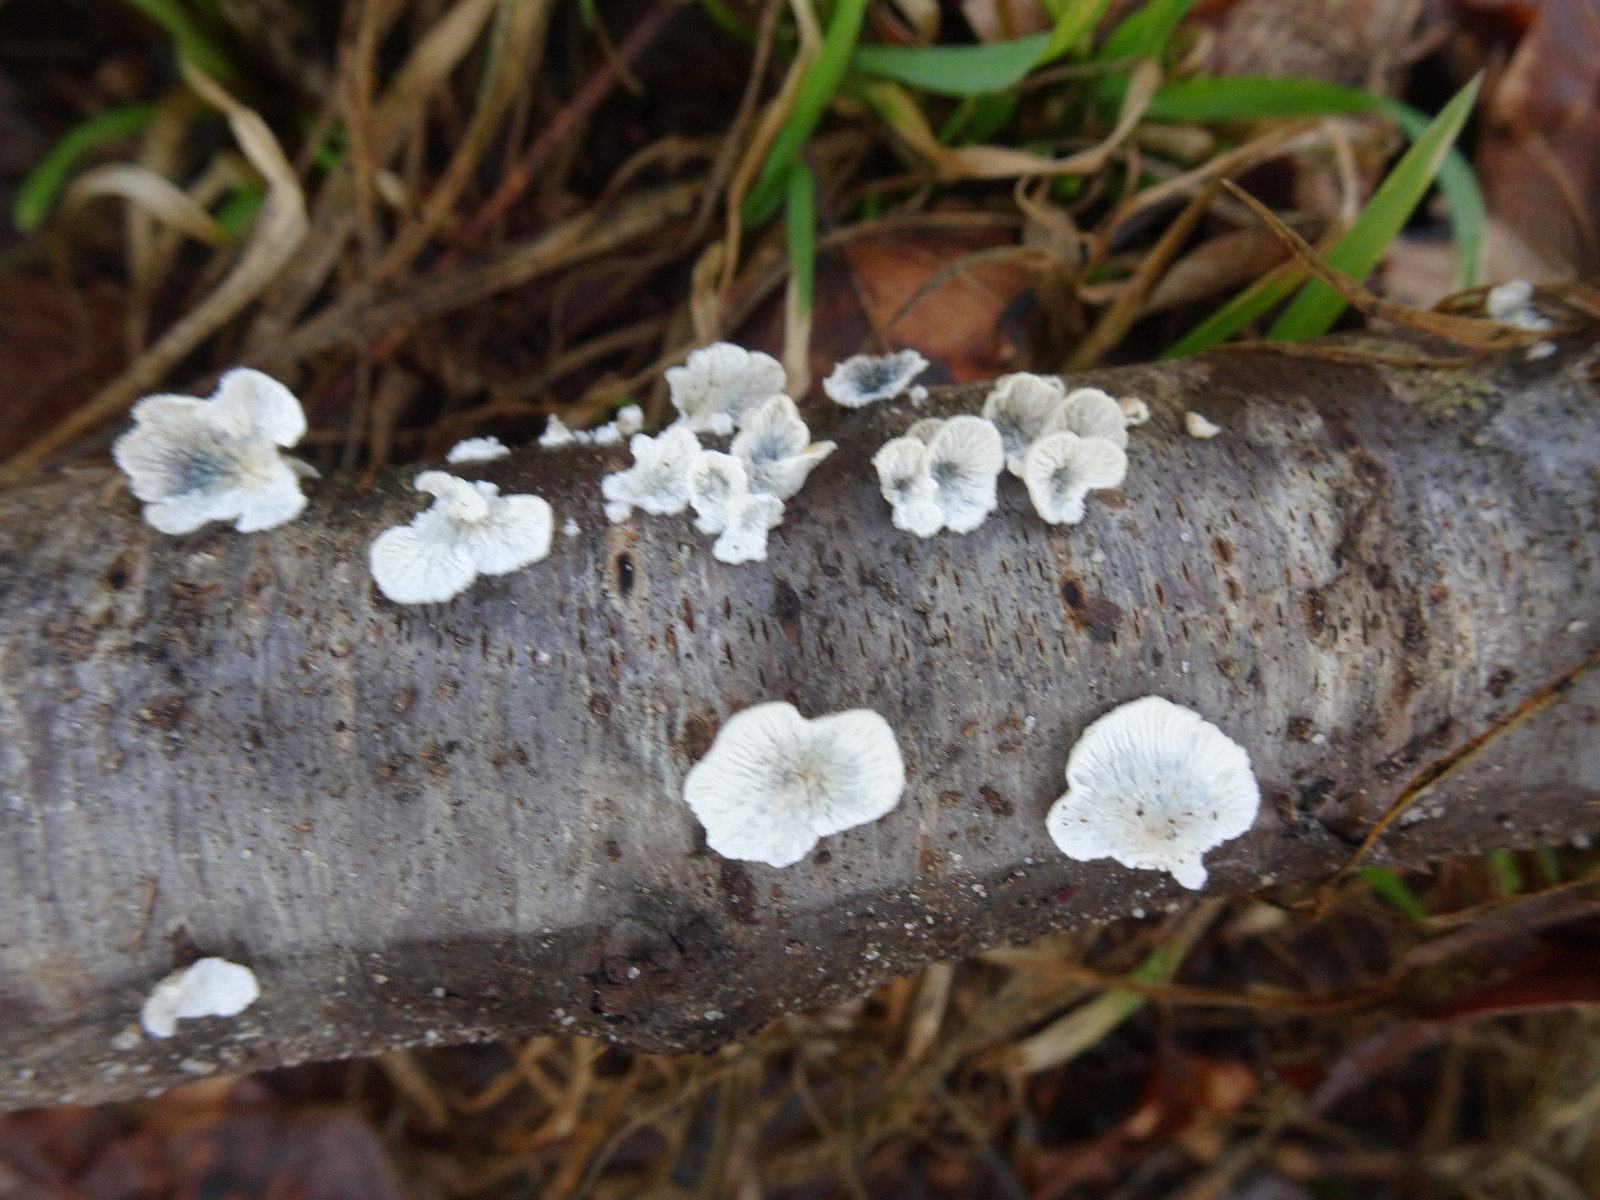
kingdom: Fungi
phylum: Basidiomycota
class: Agaricomycetes
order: Amylocorticiales
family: Amylocorticiaceae
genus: Plicaturopsis
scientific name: Plicaturopsis crispa
